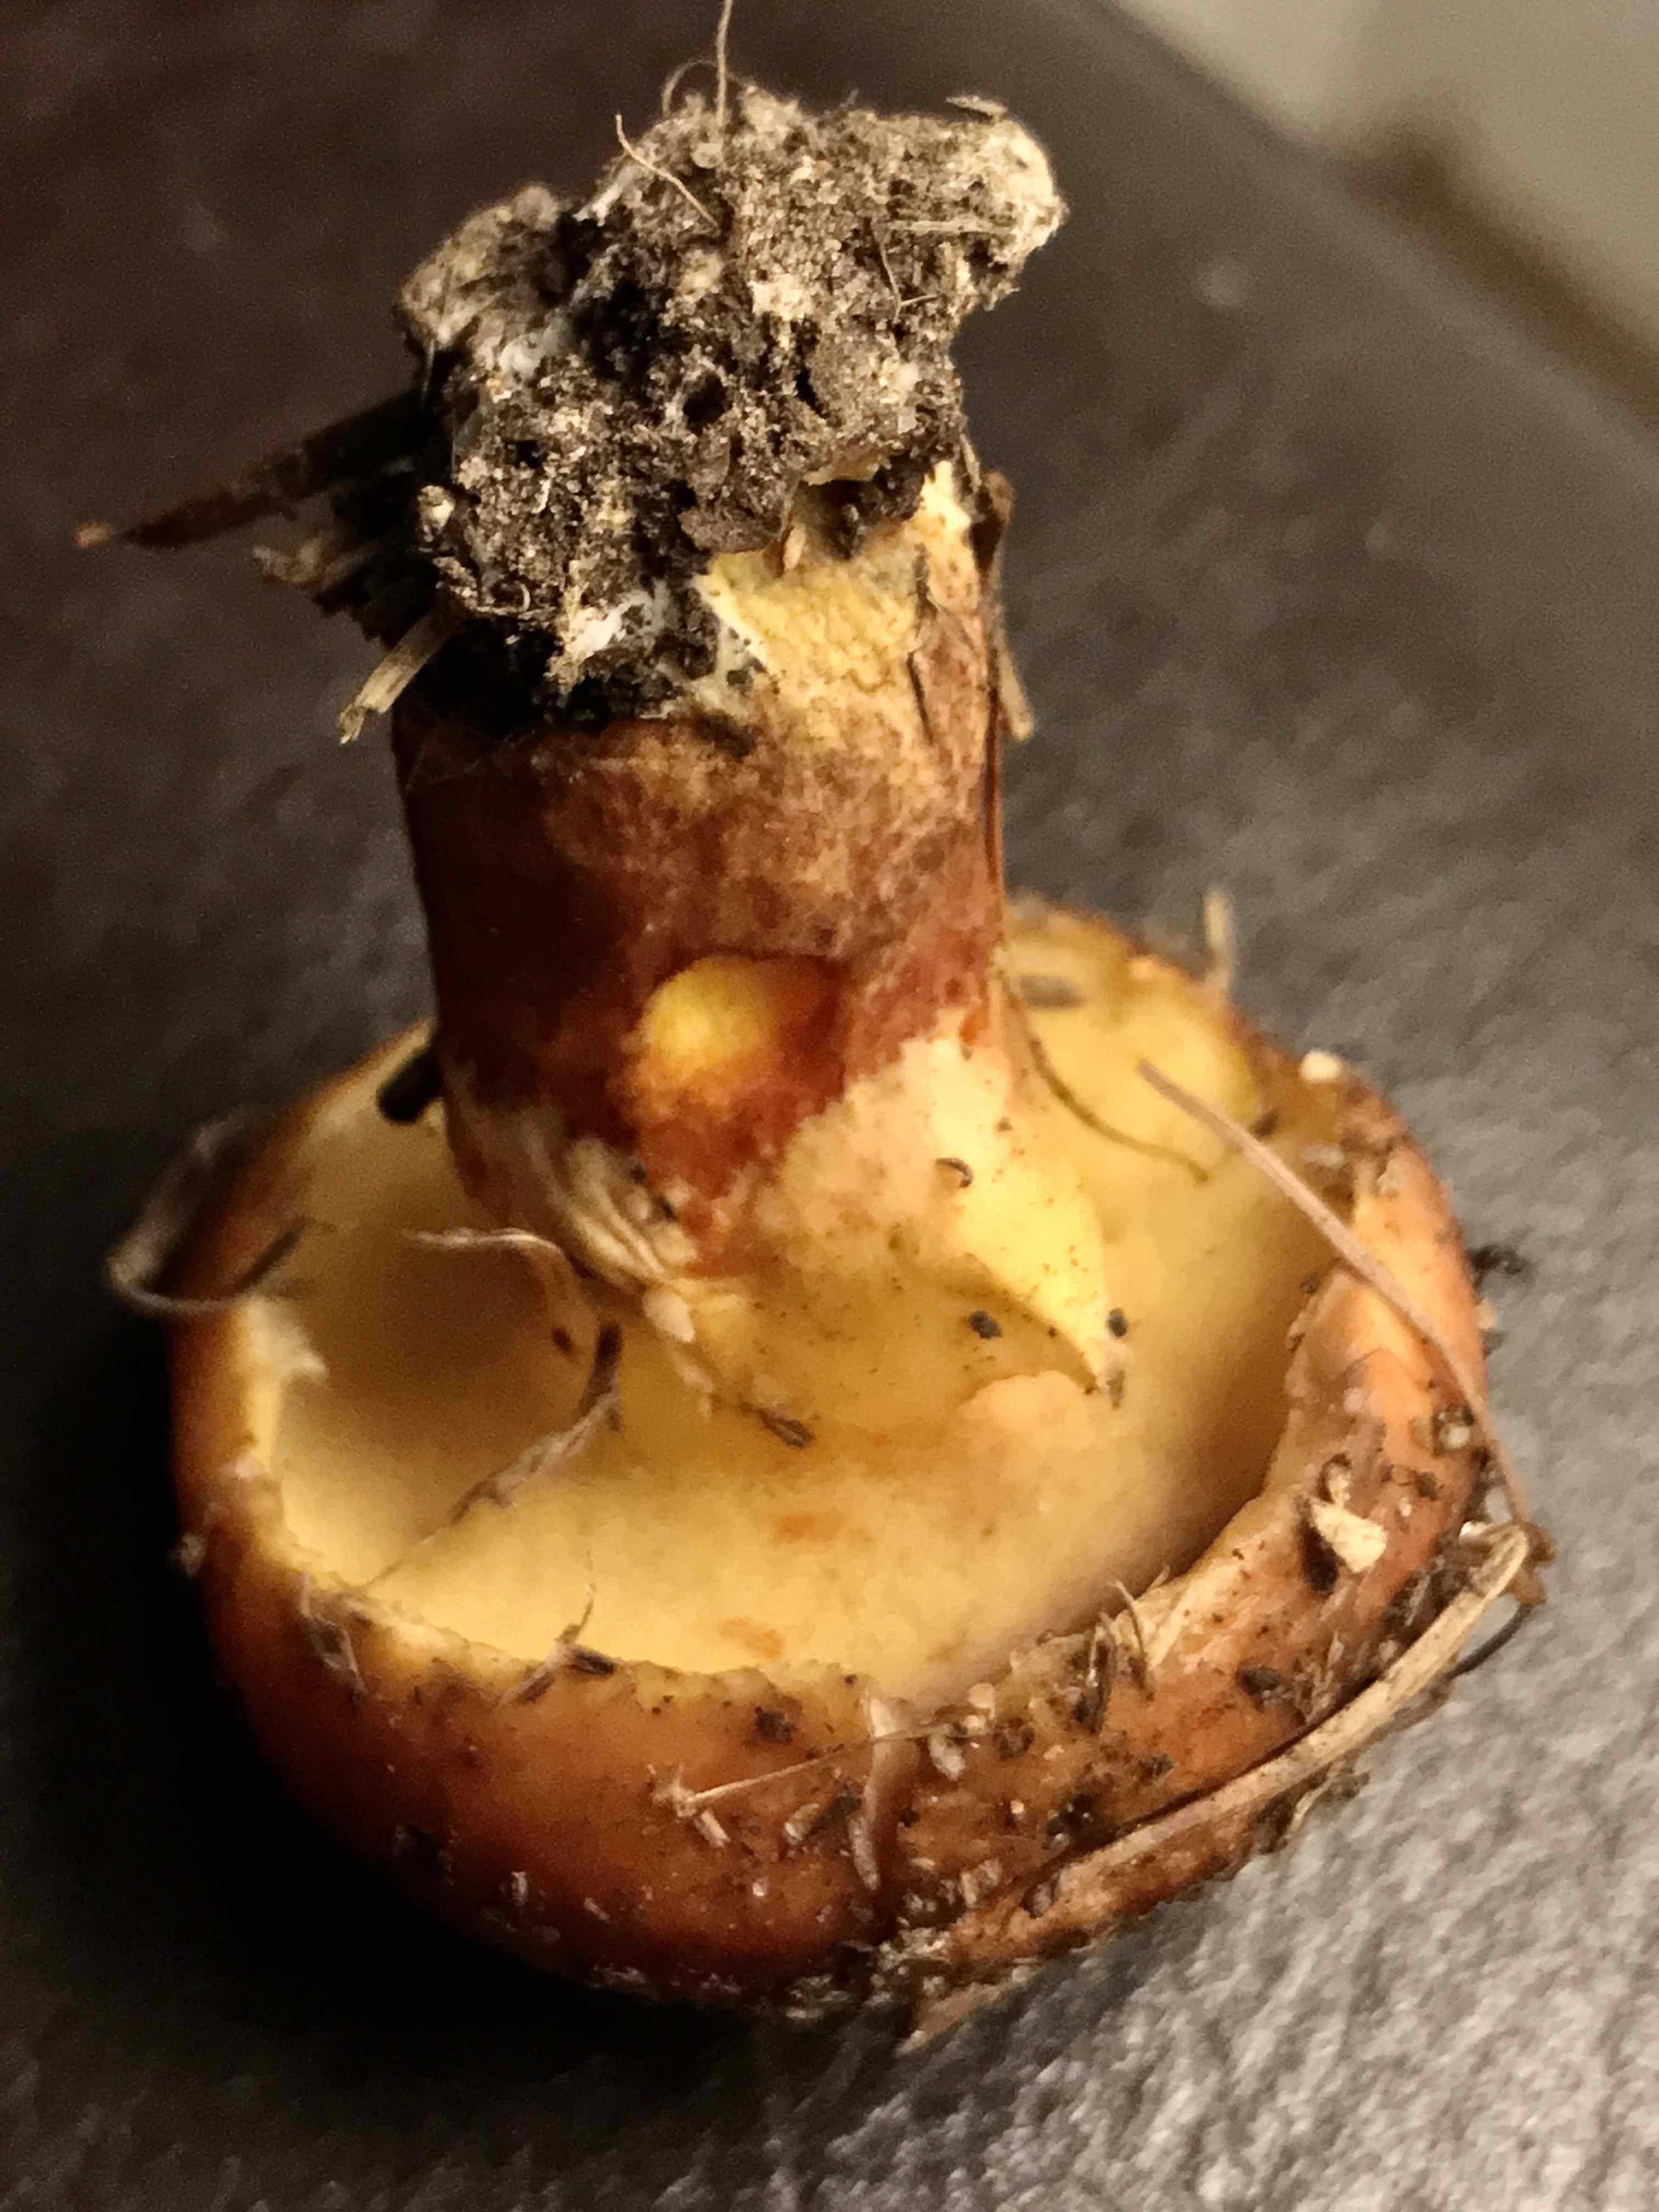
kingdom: Fungi
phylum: Basidiomycota
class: Agaricomycetes
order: Boletales
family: Suillaceae
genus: Suillus
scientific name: Suillus grevillei
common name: lærke-slimrørhat
